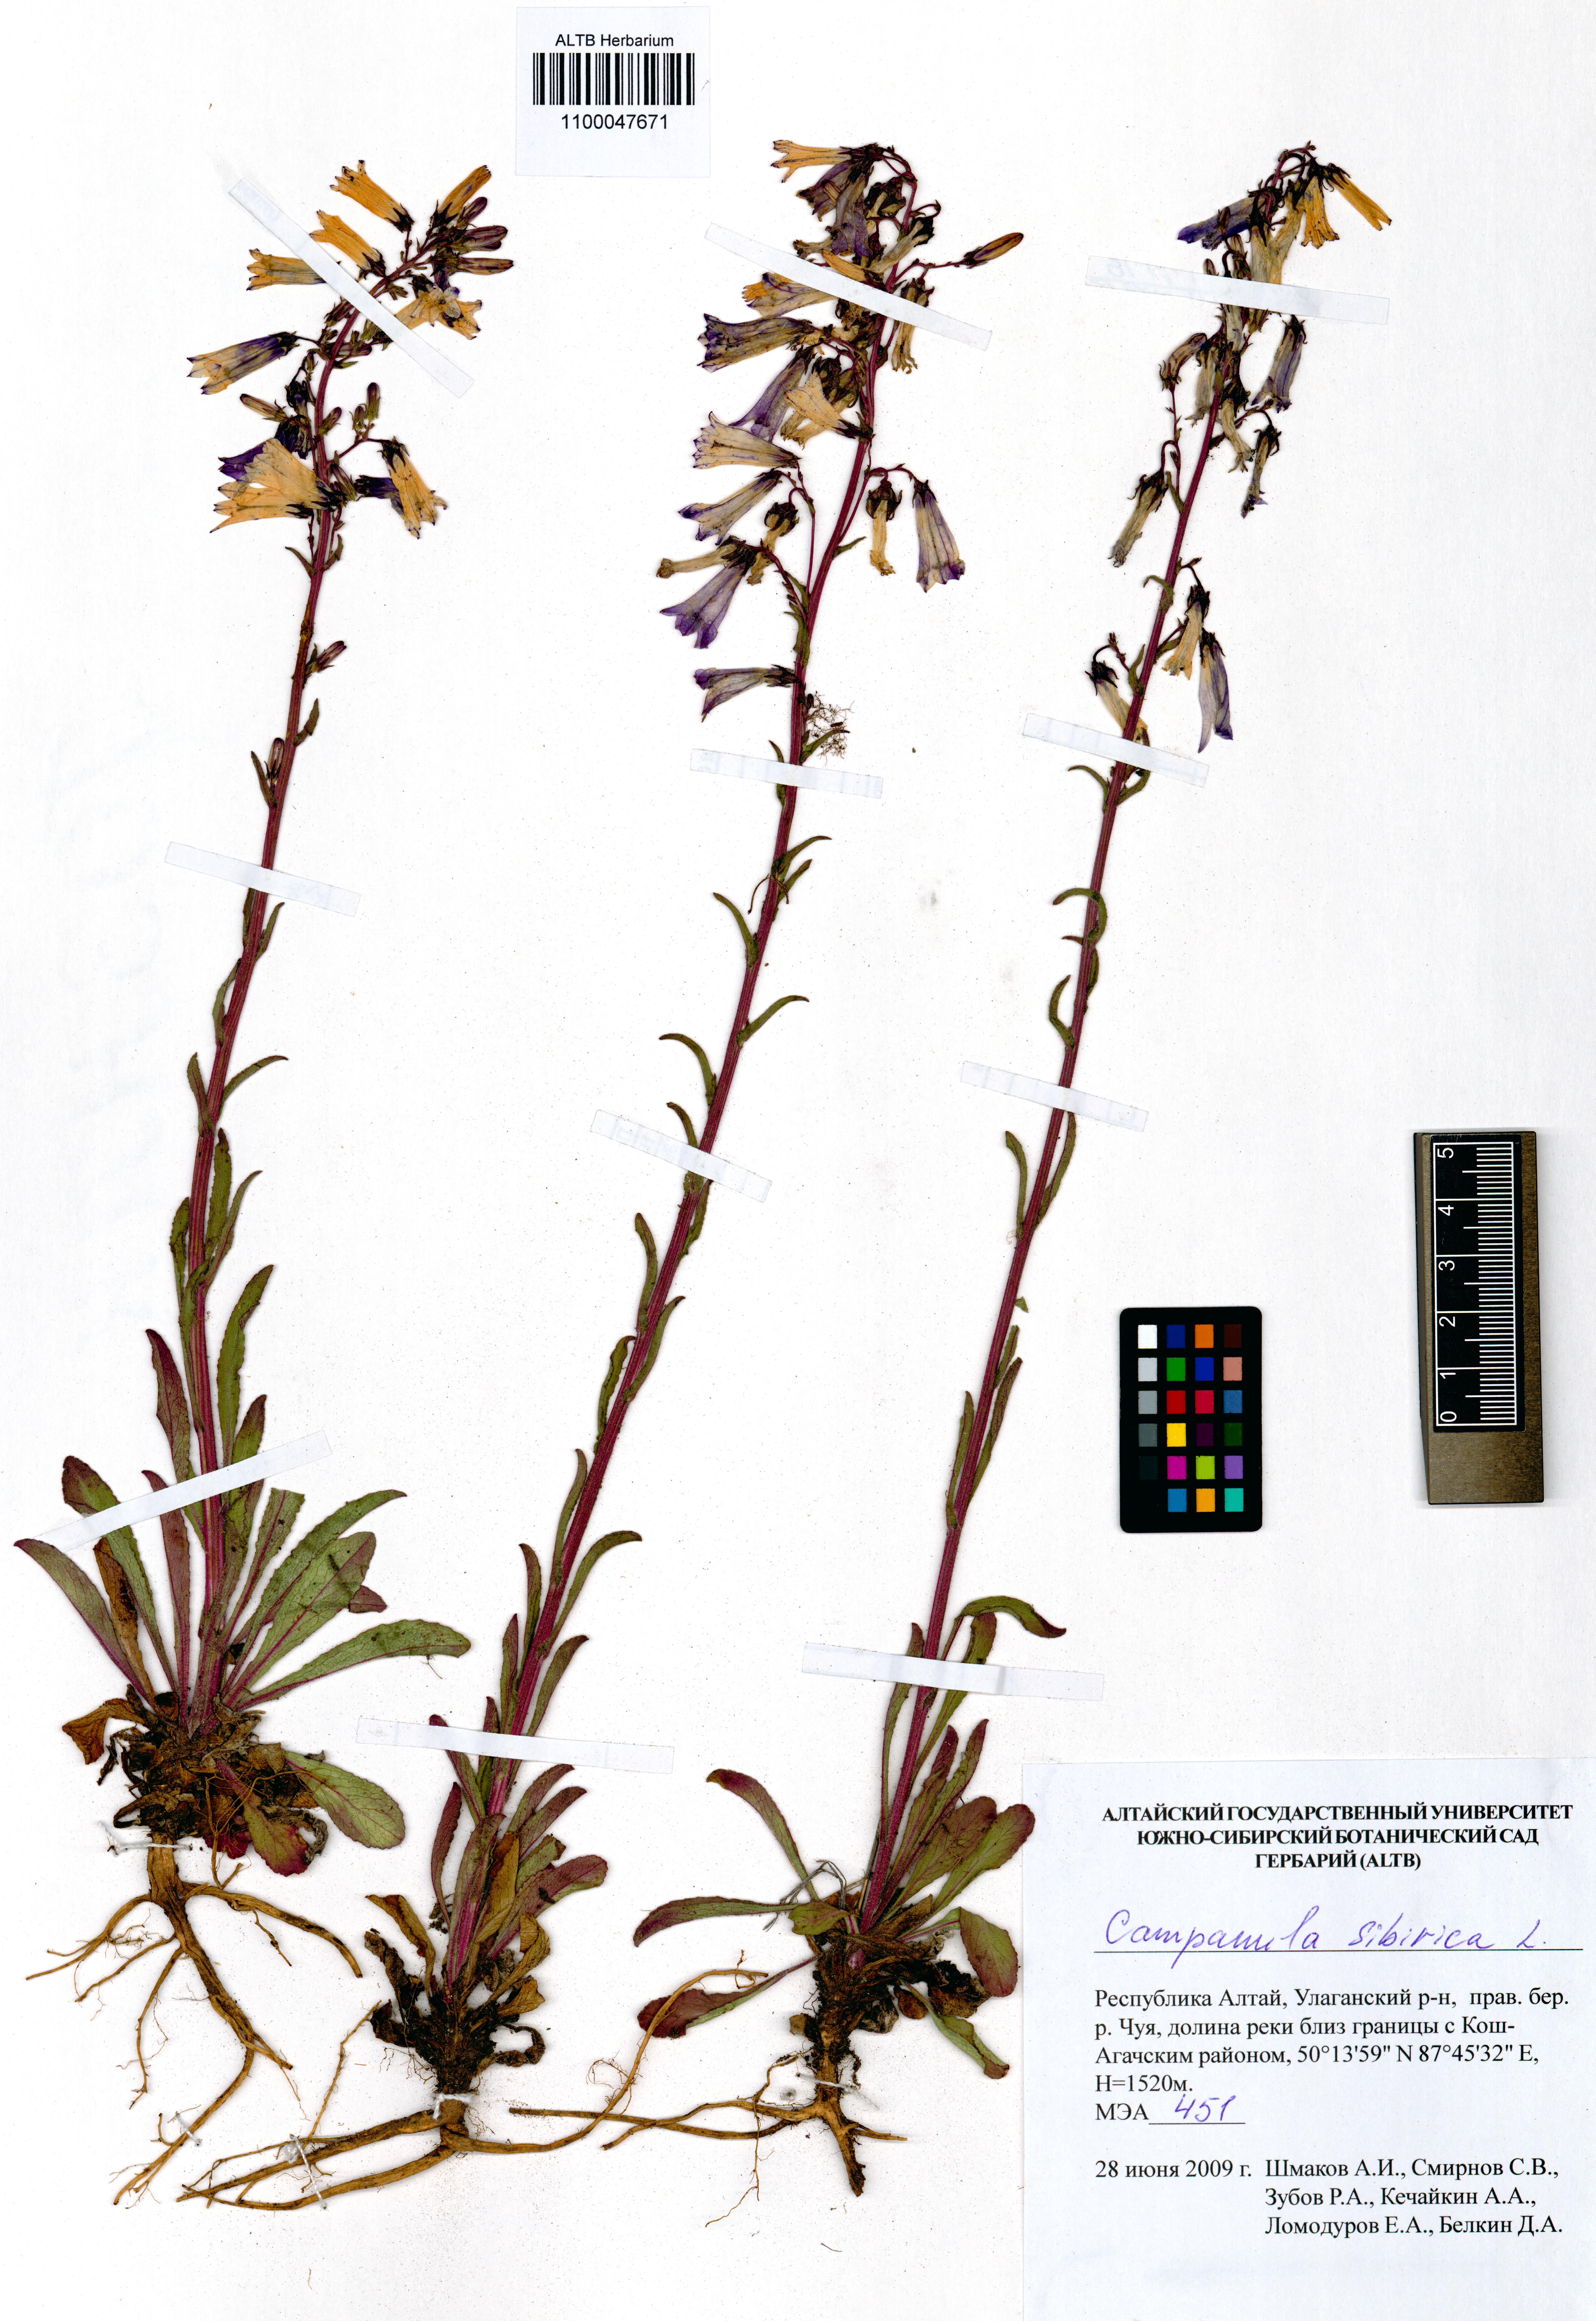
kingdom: Plantae
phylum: Tracheophyta
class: Magnoliopsida
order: Asterales
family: Campanulaceae
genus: Campanula
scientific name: Campanula sibirica
